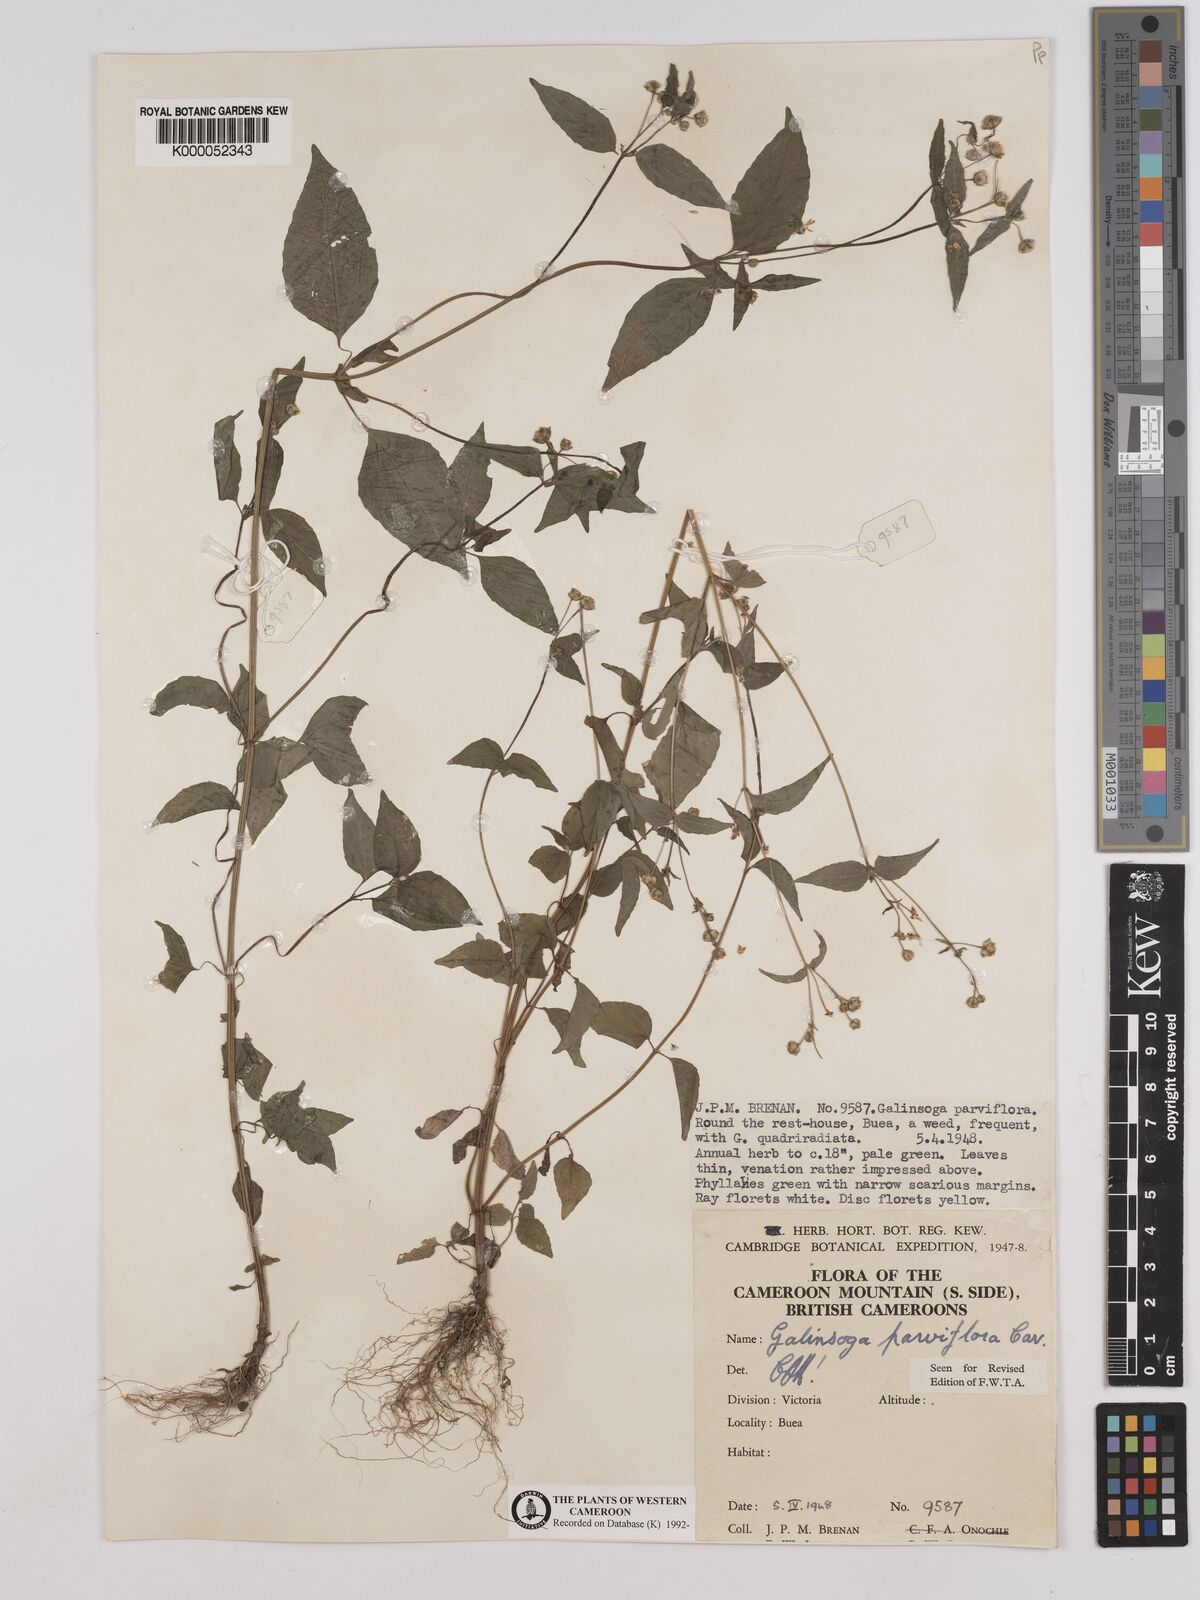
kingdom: Plantae
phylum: Tracheophyta
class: Magnoliopsida
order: Asterales
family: Asteraceae
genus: Galinsoga
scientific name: Galinsoga parviflora
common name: Gallant soldier
